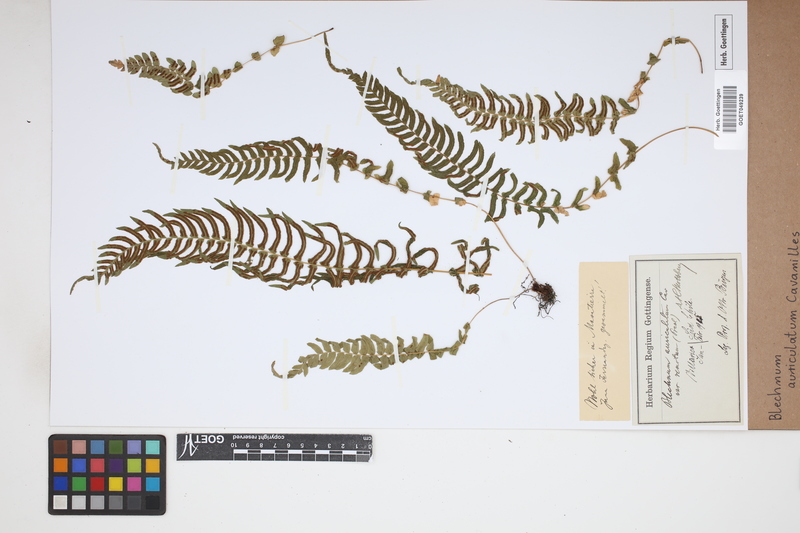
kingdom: Plantae
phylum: Tracheophyta
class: Polypodiopsida
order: Polypodiales
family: Blechnaceae
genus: Blechnum
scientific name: Blechnum auriculatum
